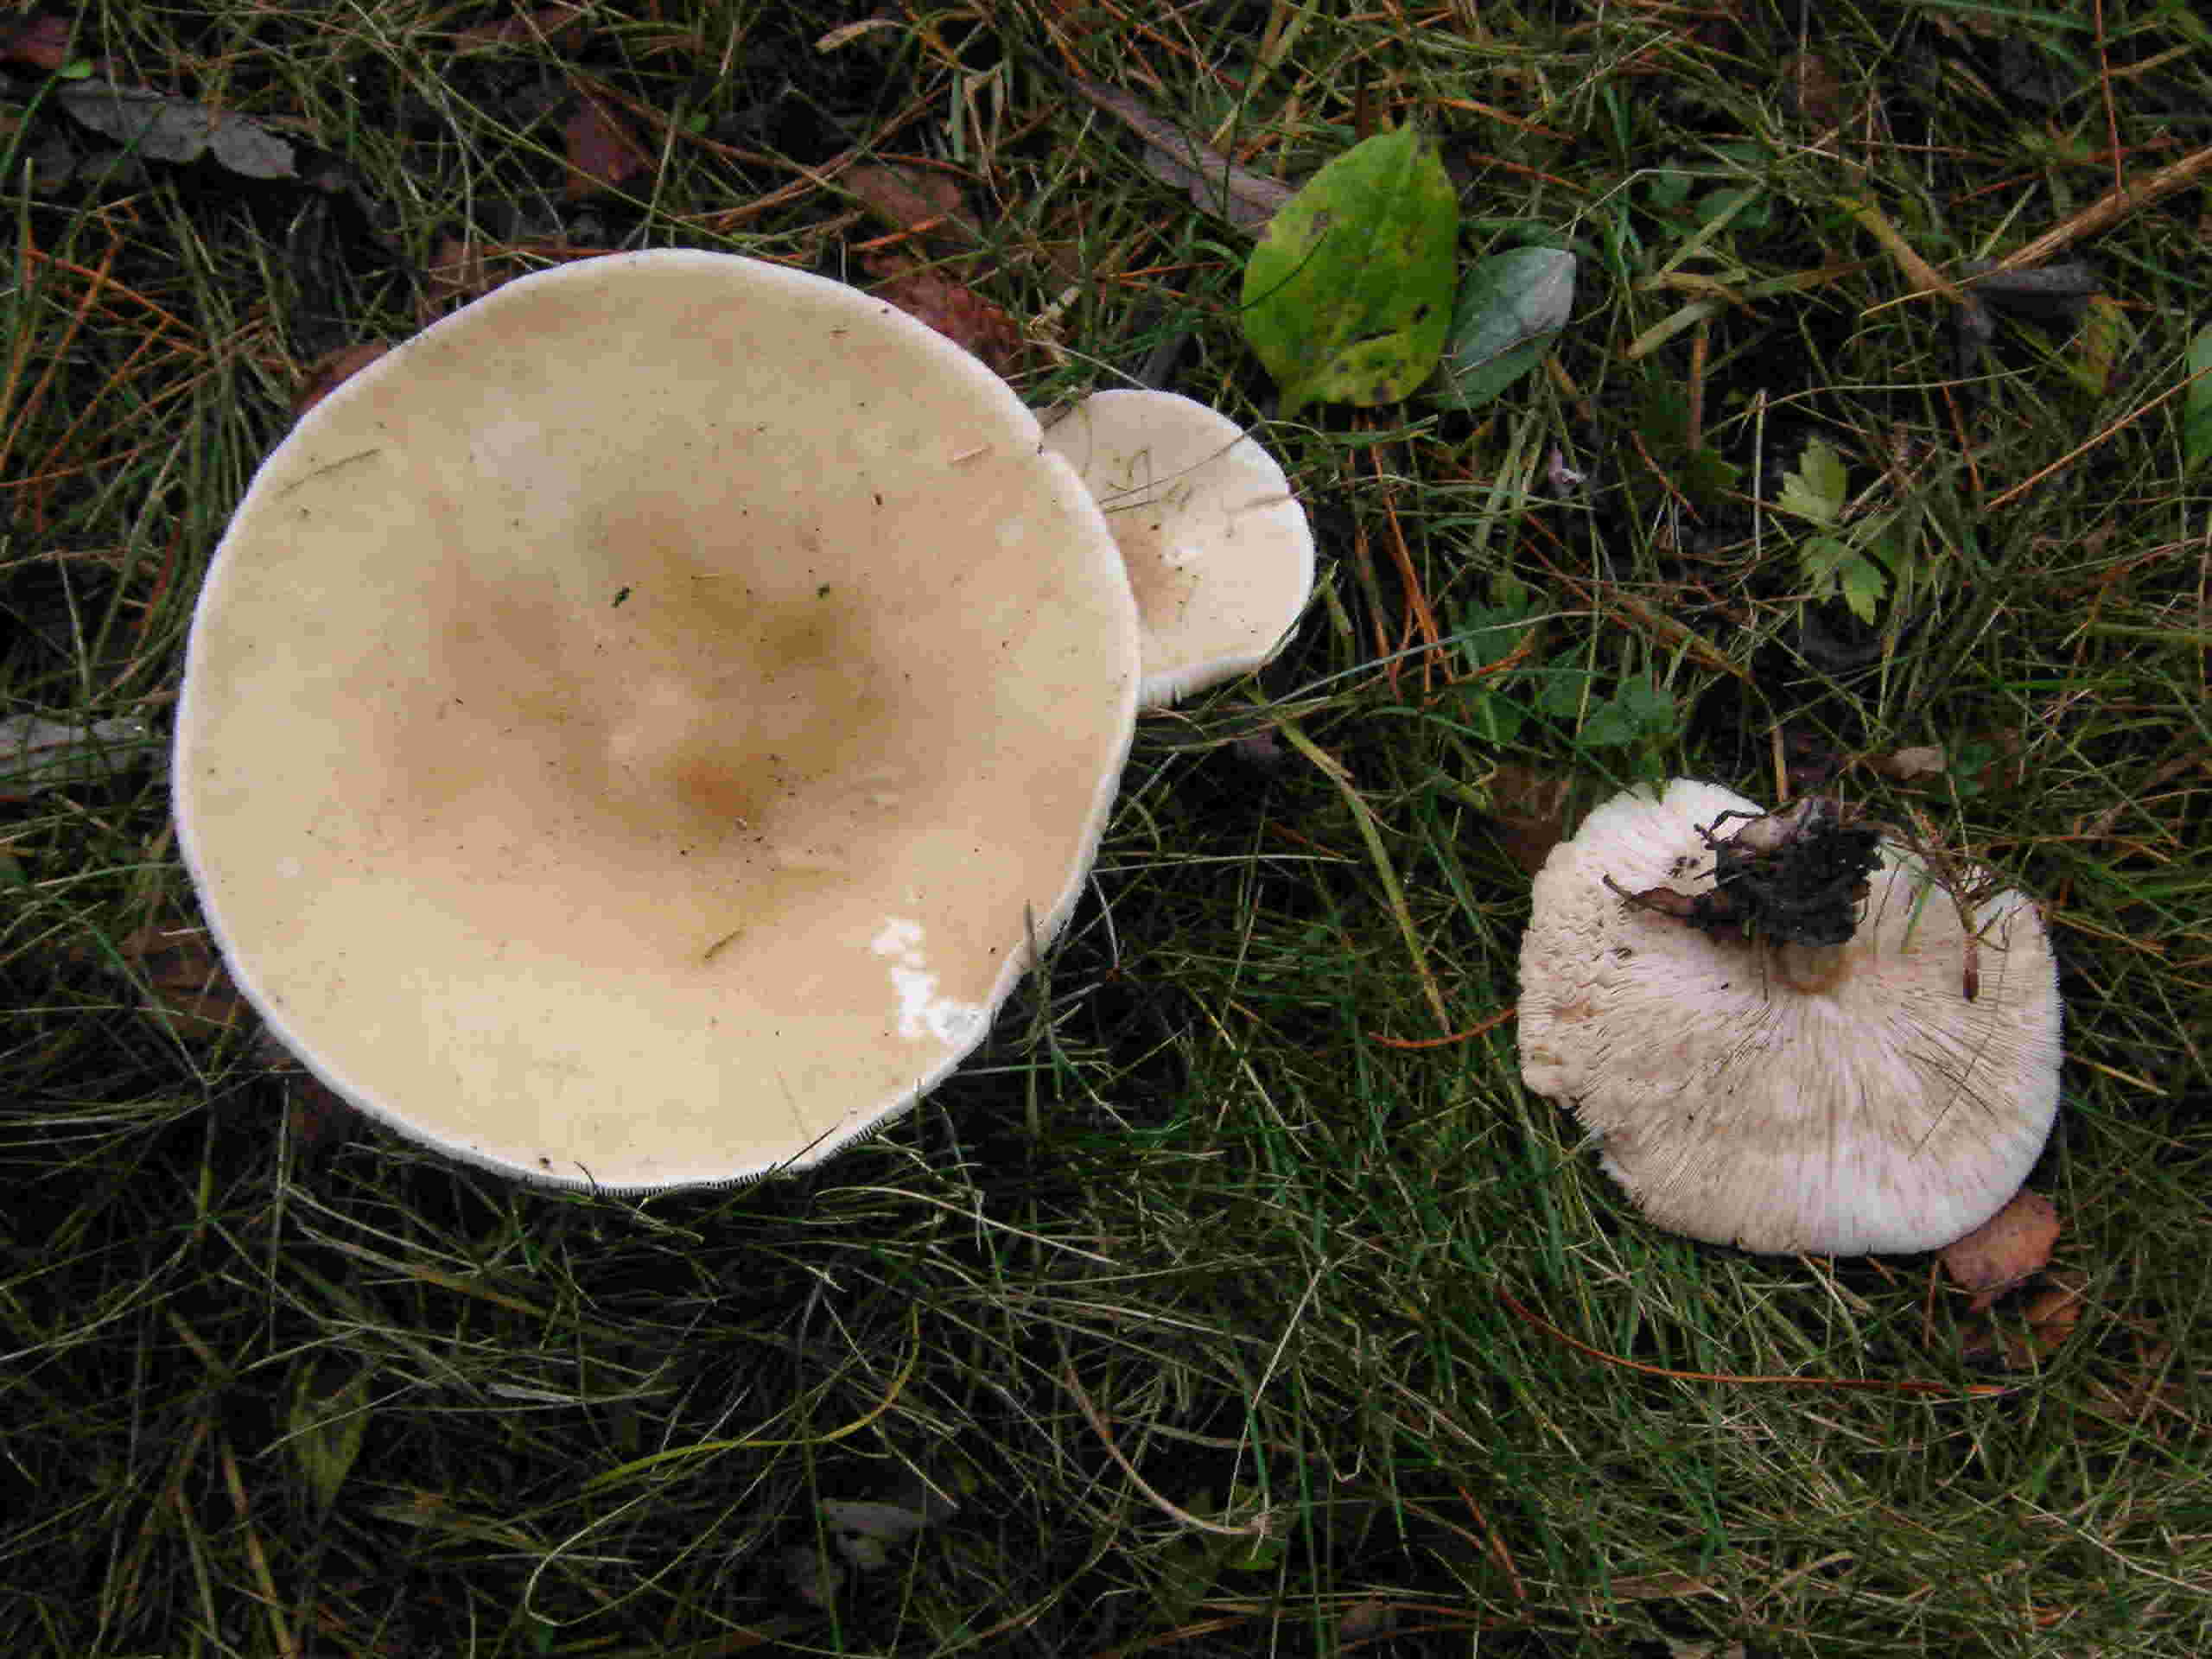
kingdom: Fungi
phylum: Basidiomycota
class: Agaricomycetes
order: Agaricales
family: Tricholomataceae
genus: Melanoleuca
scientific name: Melanoleuca
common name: munkehat
